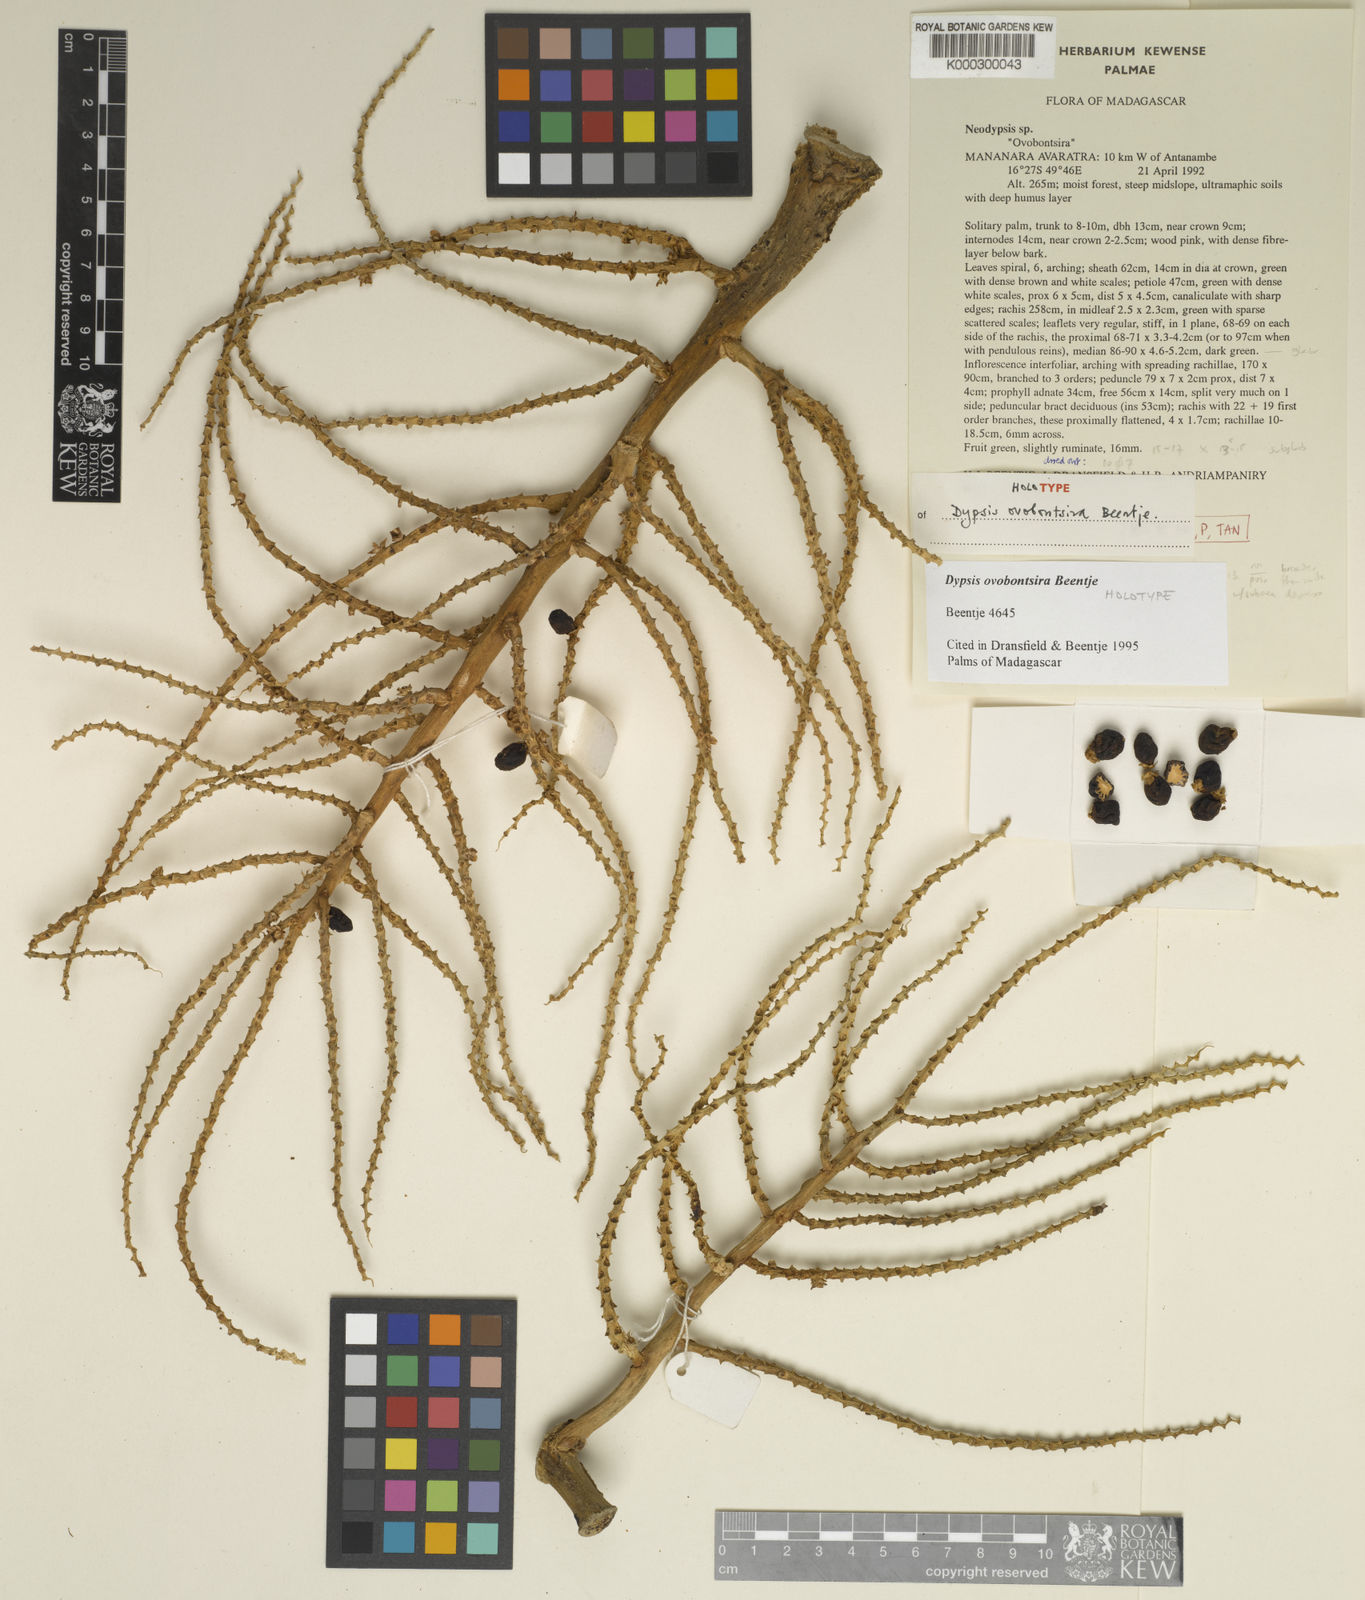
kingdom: Plantae
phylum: Tracheophyta
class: Liliopsida
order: Arecales
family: Arecaceae
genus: Dypsis
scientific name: Dypsis ovobontsira
